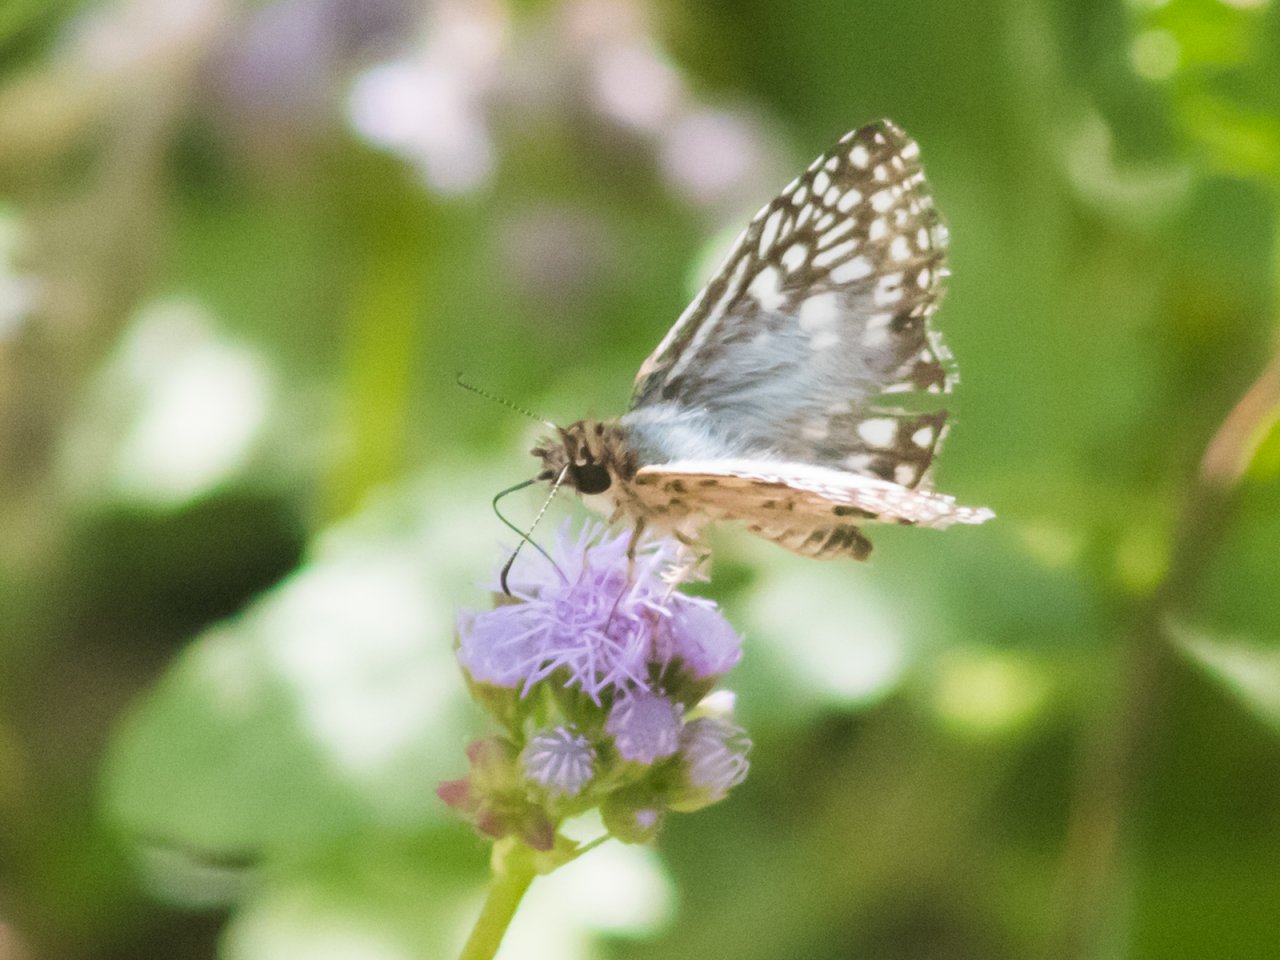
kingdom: Animalia
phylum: Arthropoda
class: Insecta
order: Lepidoptera
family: Hesperiidae
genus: Ancyloxypha
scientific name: Ancyloxypha arene
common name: Tropical Least Skipper
